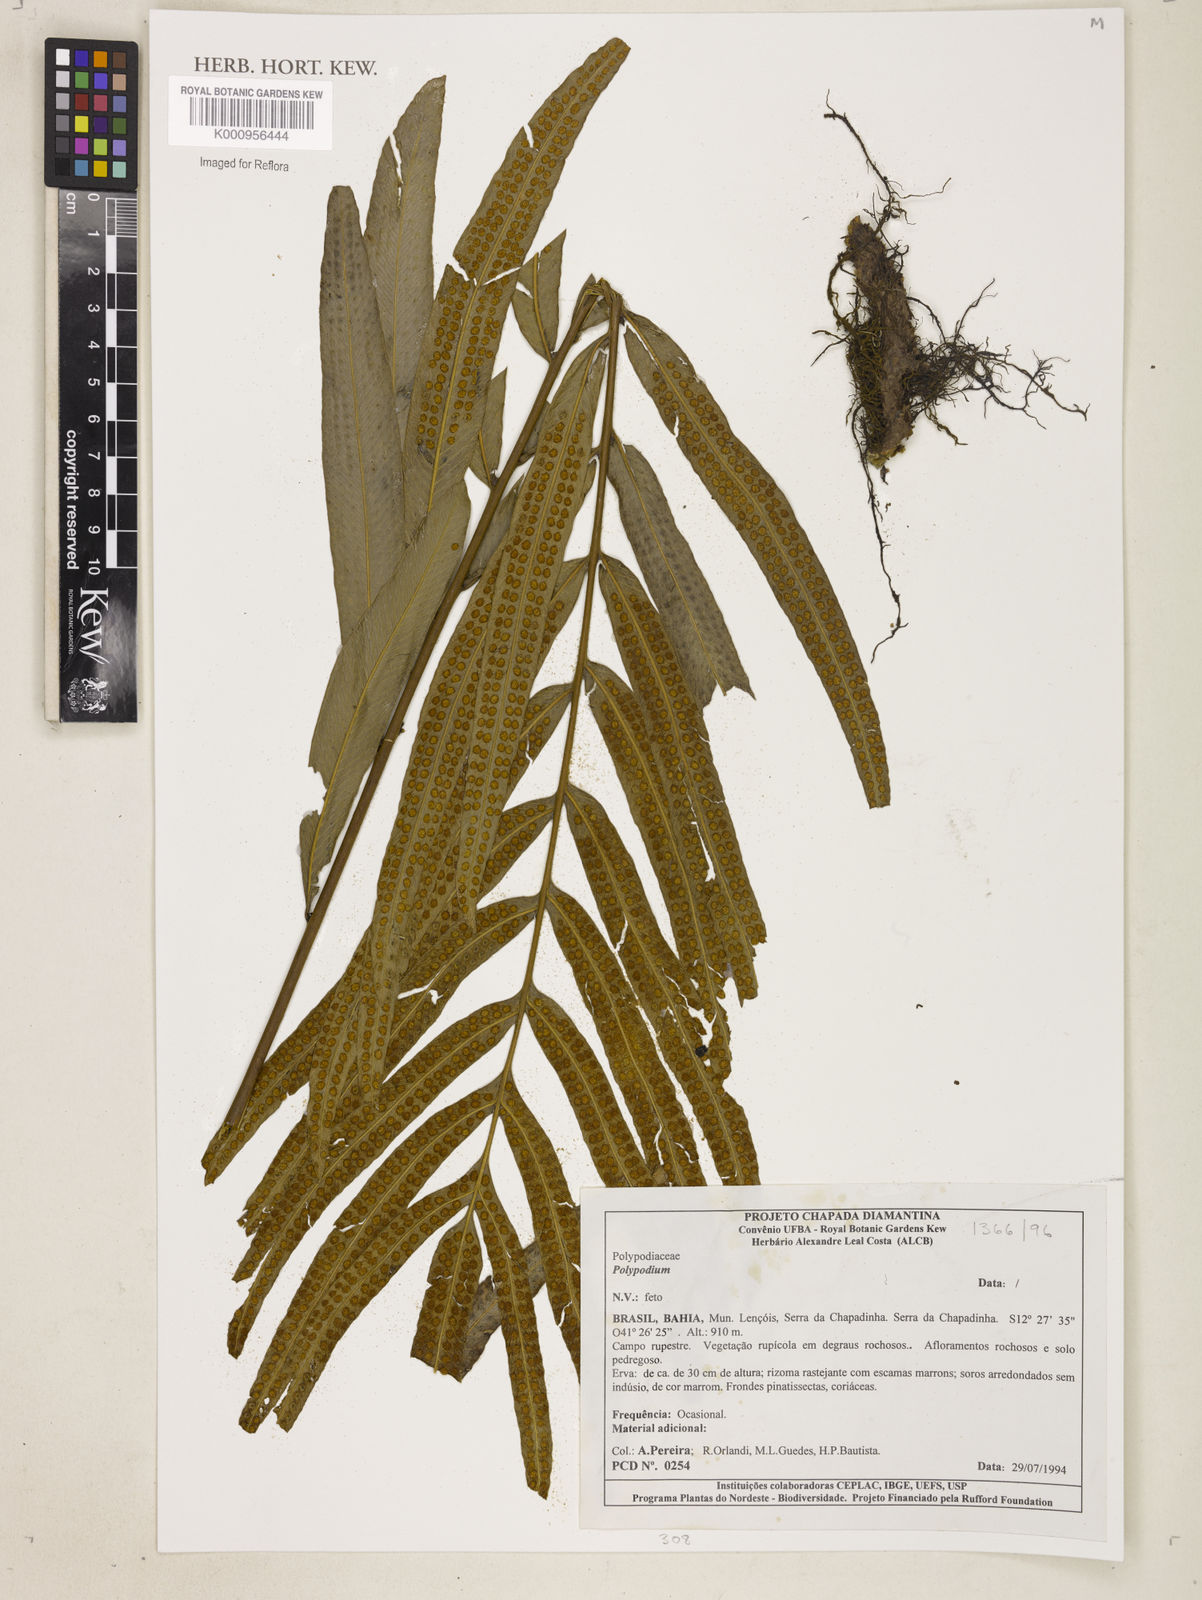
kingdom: Plantae
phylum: Tracheophyta
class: Polypodiopsida
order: Polypodiales
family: Polypodiaceae
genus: Polypodium
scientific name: Polypodium
